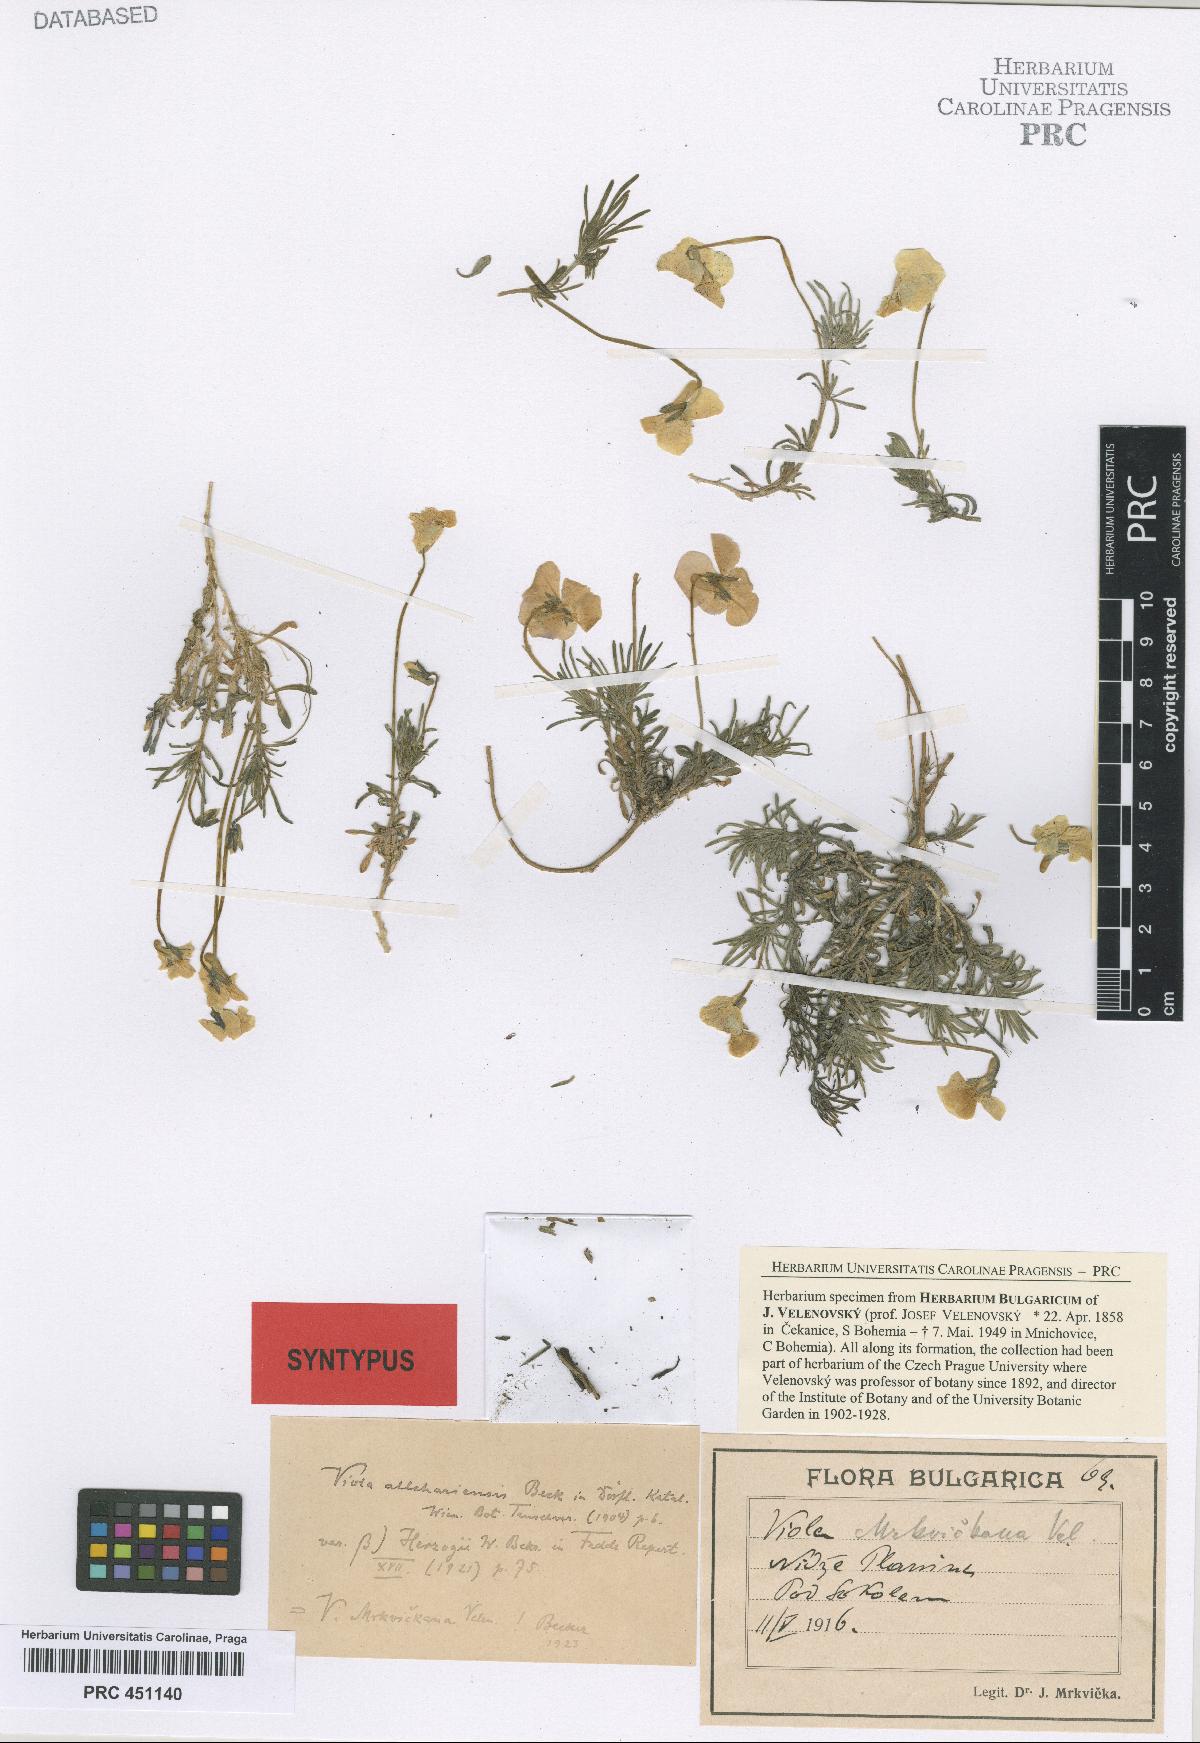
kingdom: Plantae
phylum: Tracheophyta
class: Magnoliopsida
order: Malpighiales
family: Violaceae
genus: Viola
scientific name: Viola herzogii
